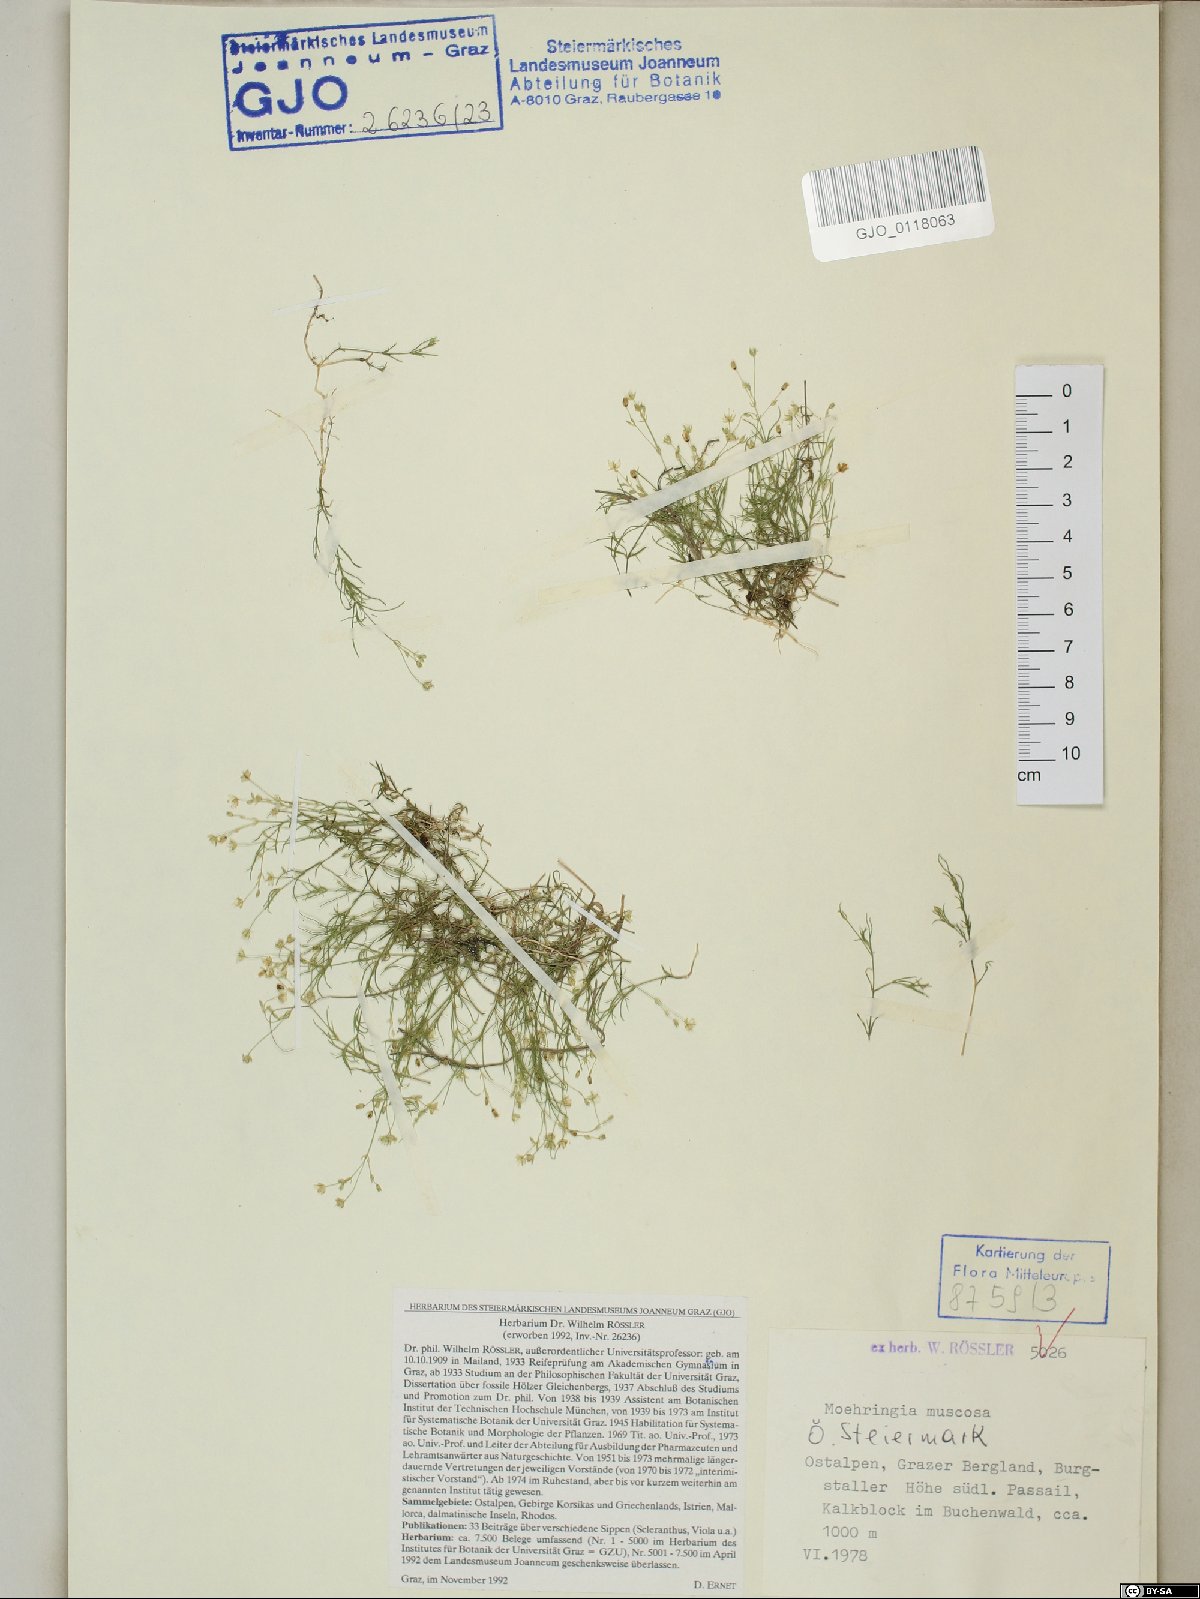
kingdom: Plantae
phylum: Tracheophyta
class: Magnoliopsida
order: Caryophyllales
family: Caryophyllaceae
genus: Moehringia
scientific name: Moehringia muscosa
